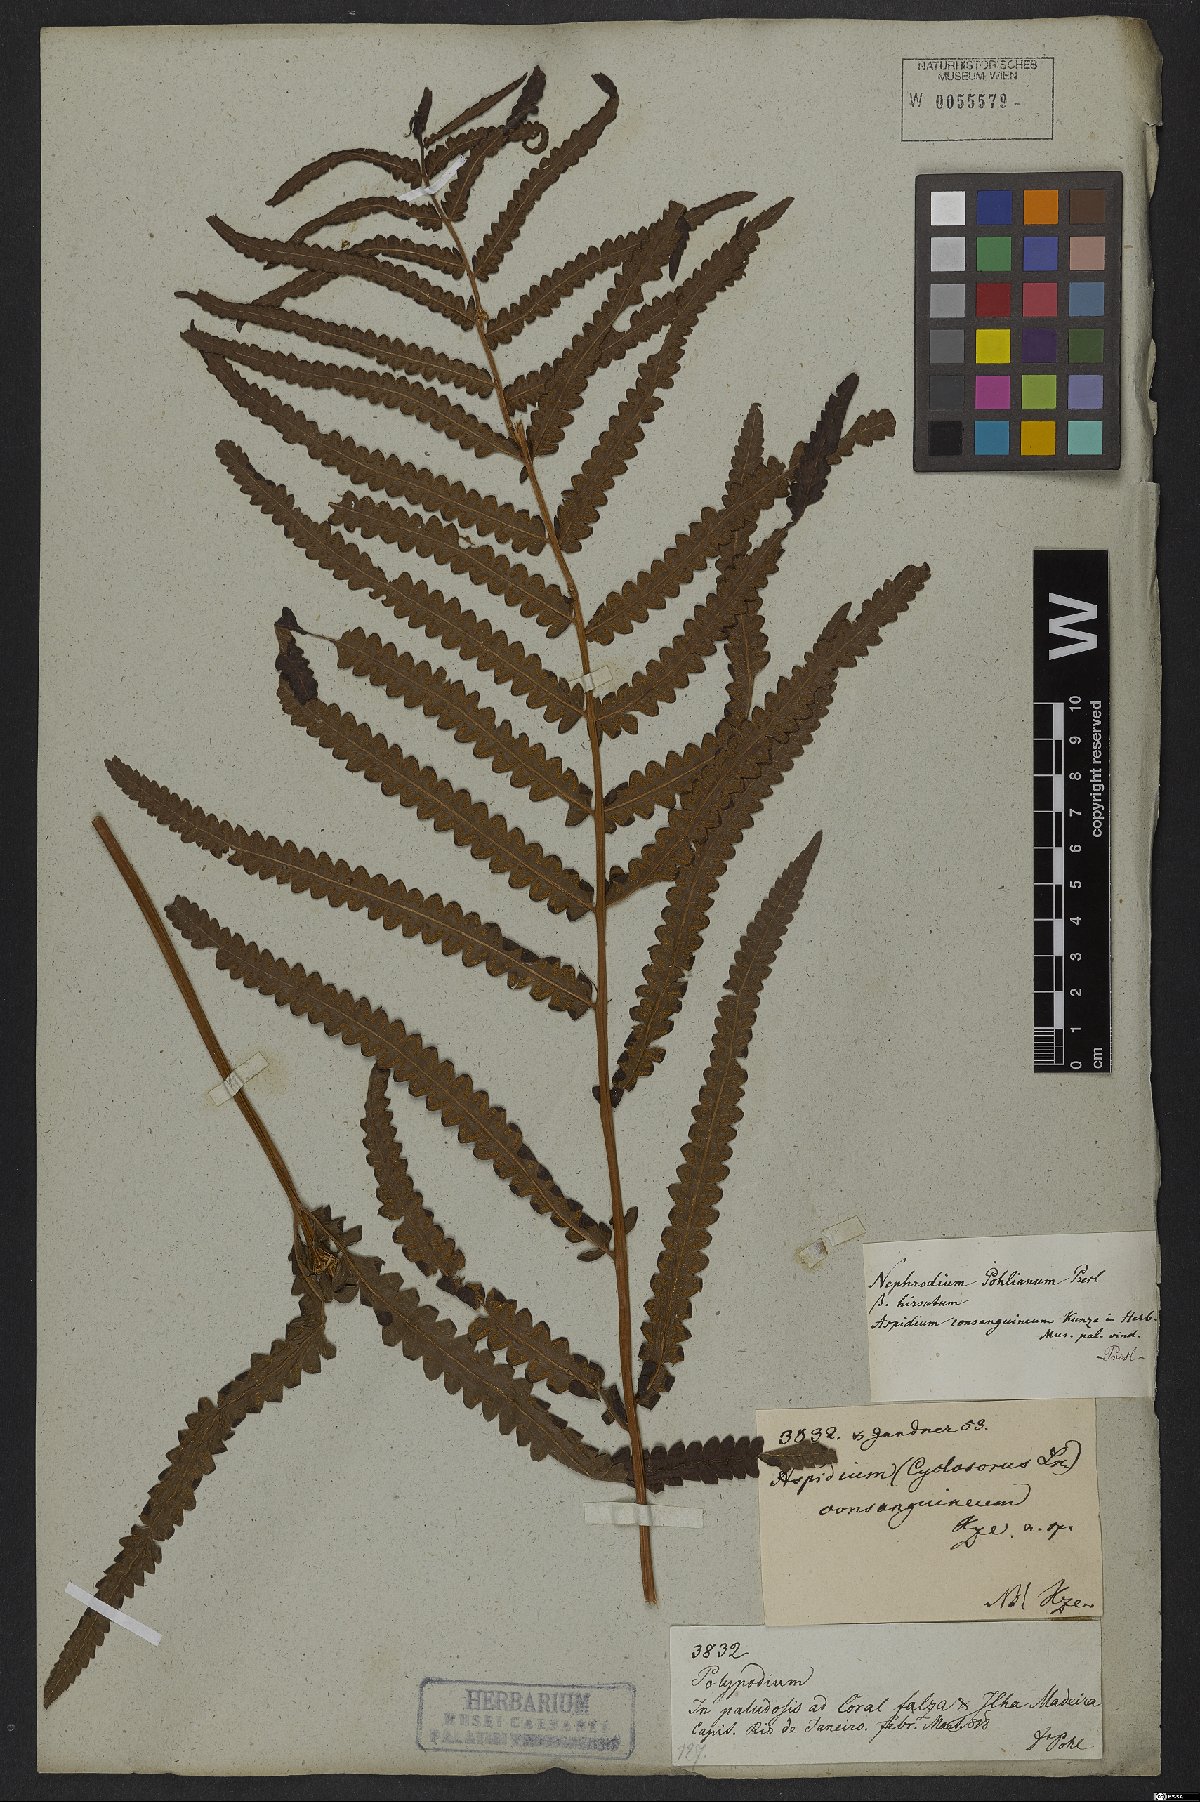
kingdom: Plantae
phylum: Tracheophyta
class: Polypodiopsida
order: Polypodiales
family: Thelypteridaceae
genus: Cyclosorus
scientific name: Cyclosorus interruptus
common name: Neke fern
